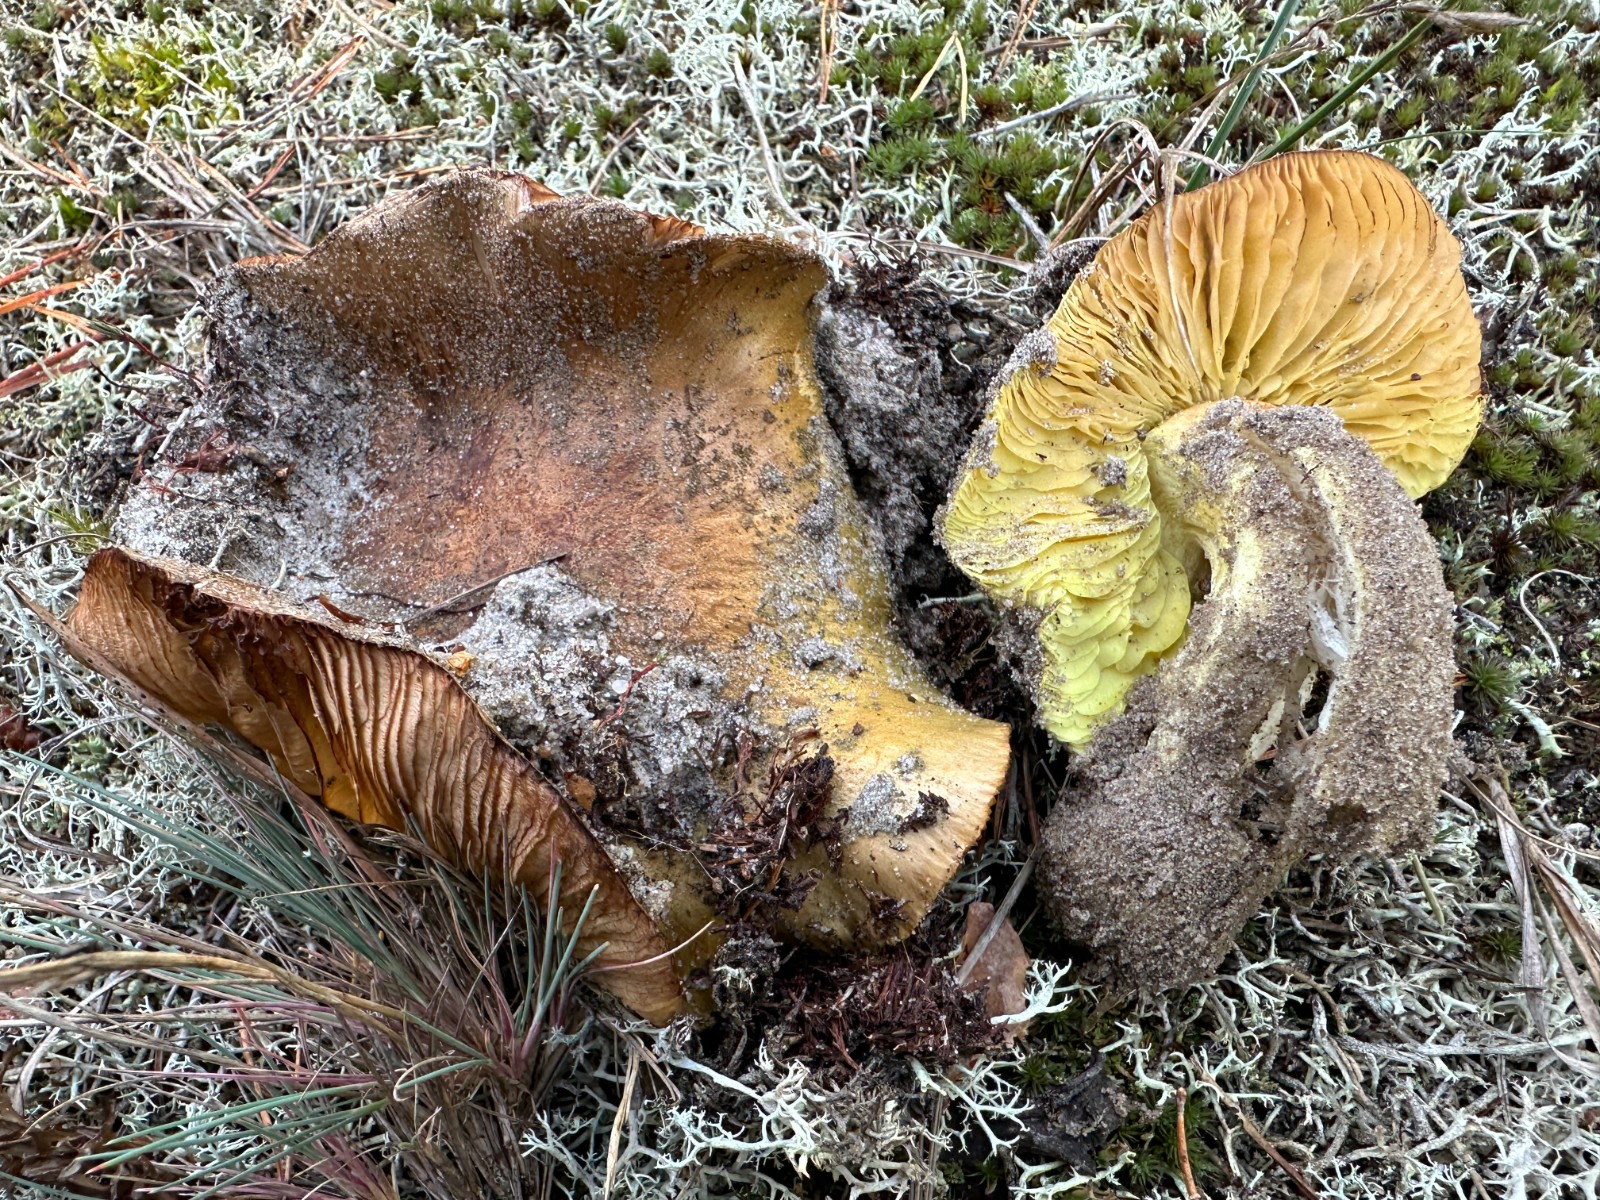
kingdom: Fungi
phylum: Basidiomycota
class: Agaricomycetes
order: Agaricales
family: Tricholomataceae
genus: Tricholoma
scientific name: Tricholoma equestre
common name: ægte ridderhat
